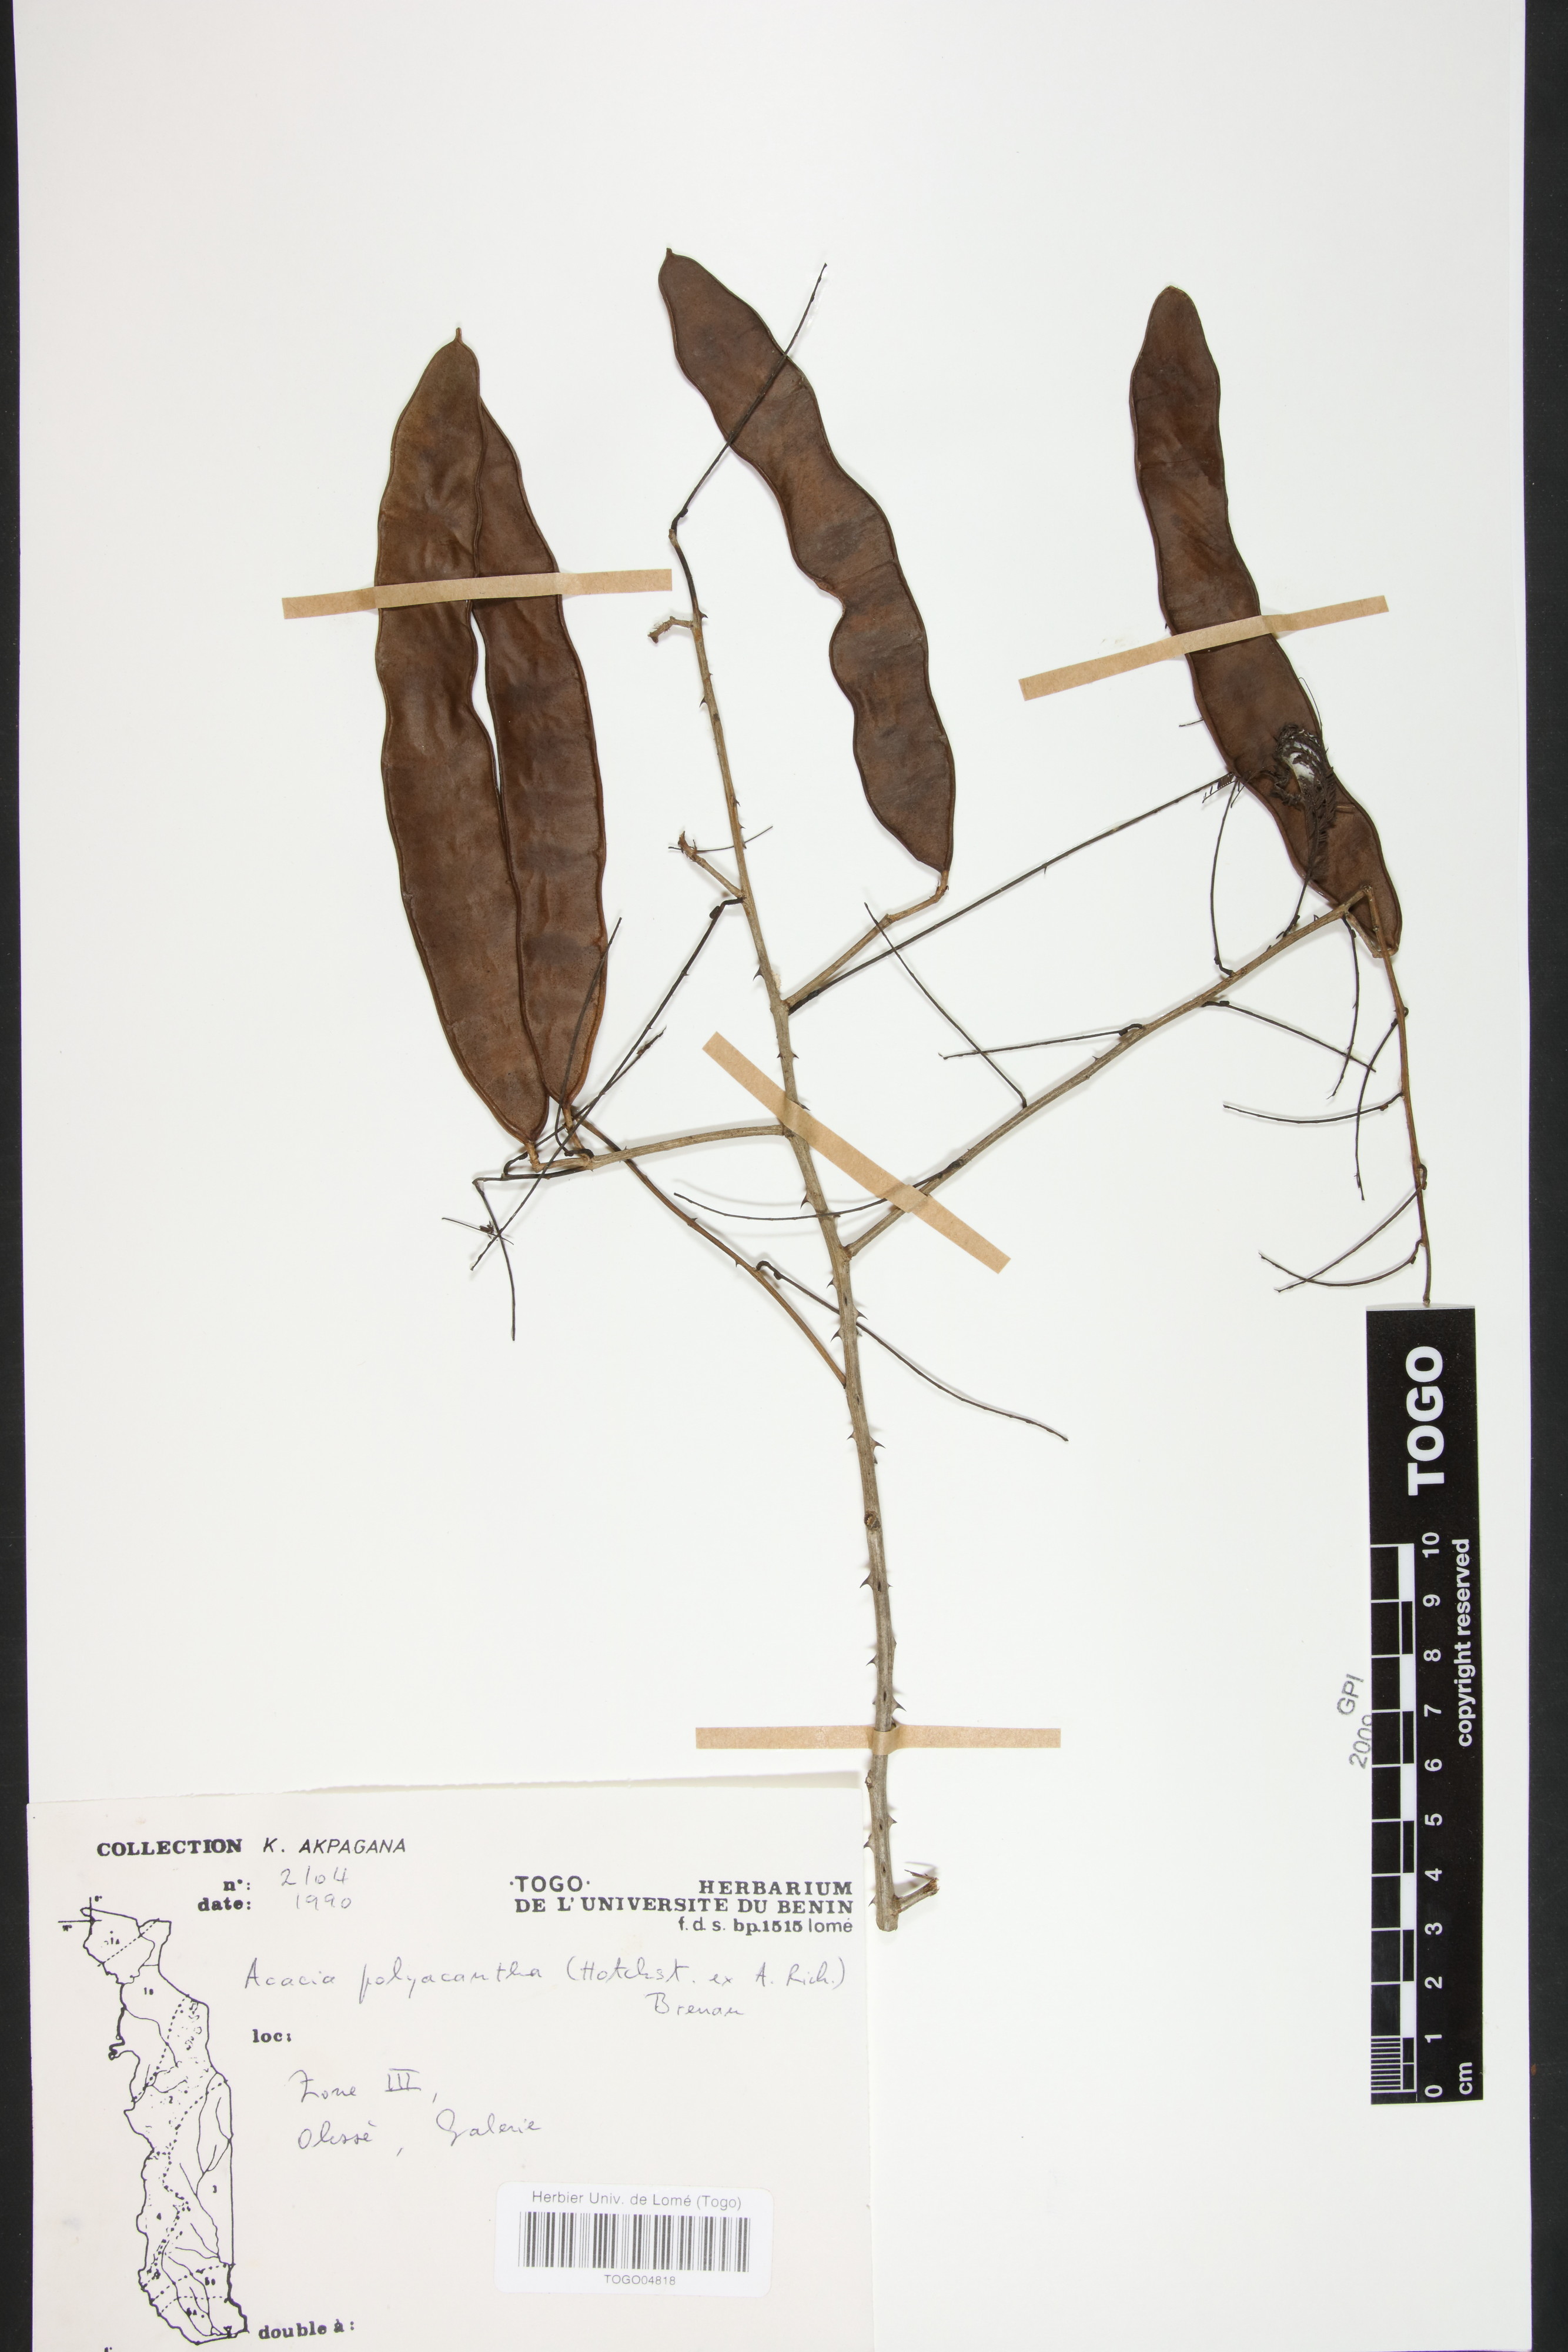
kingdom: Plantae
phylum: Tracheophyta
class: Magnoliopsida
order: Fabales
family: Fabaceae
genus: Senegalia
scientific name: Senegalia polyacantha
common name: Whitethorn
